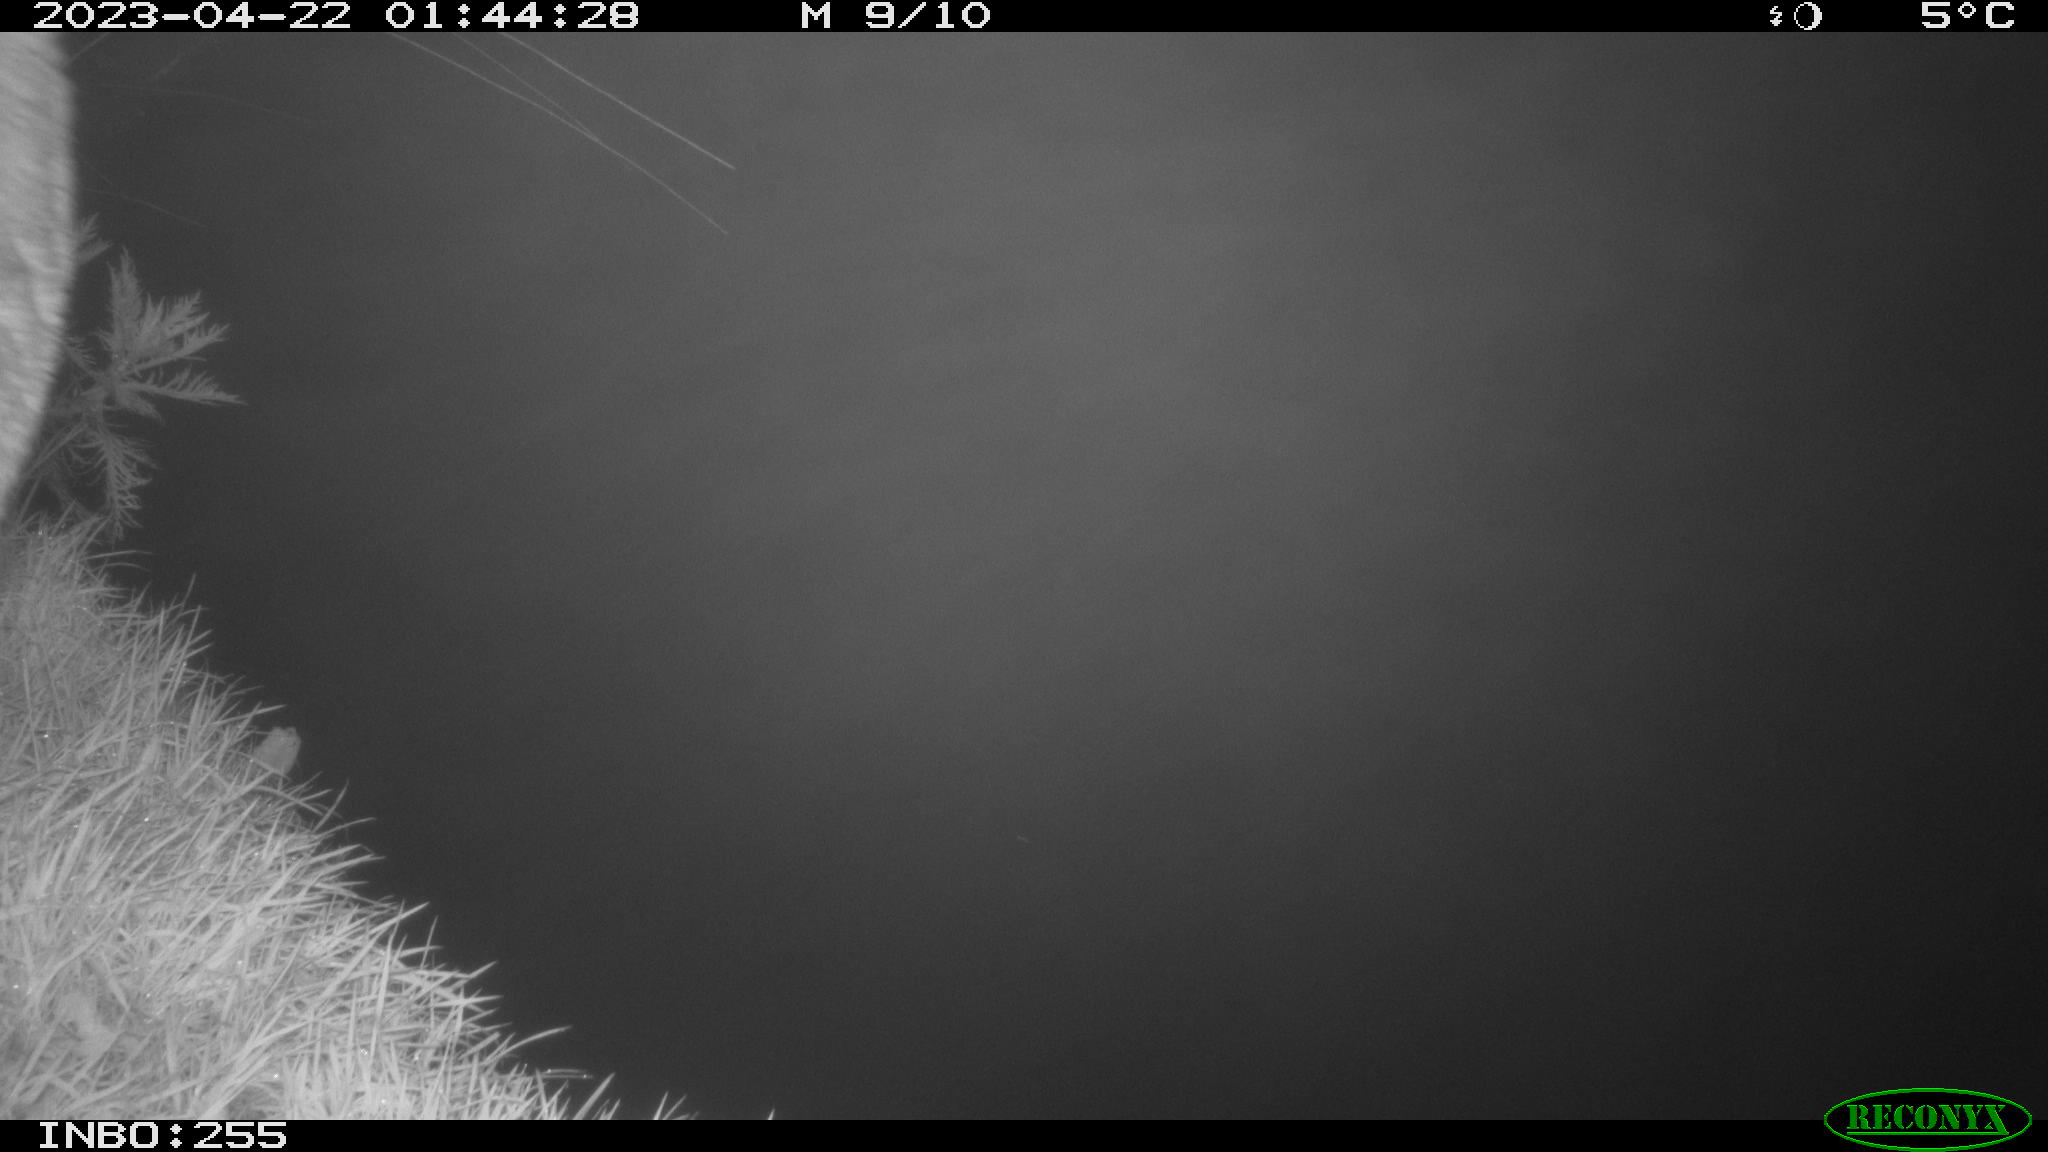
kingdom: Animalia
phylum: Chordata
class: Mammalia
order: Artiodactyla
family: Cervidae
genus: Capreolus
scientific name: Capreolus capreolus
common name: Western roe deer
